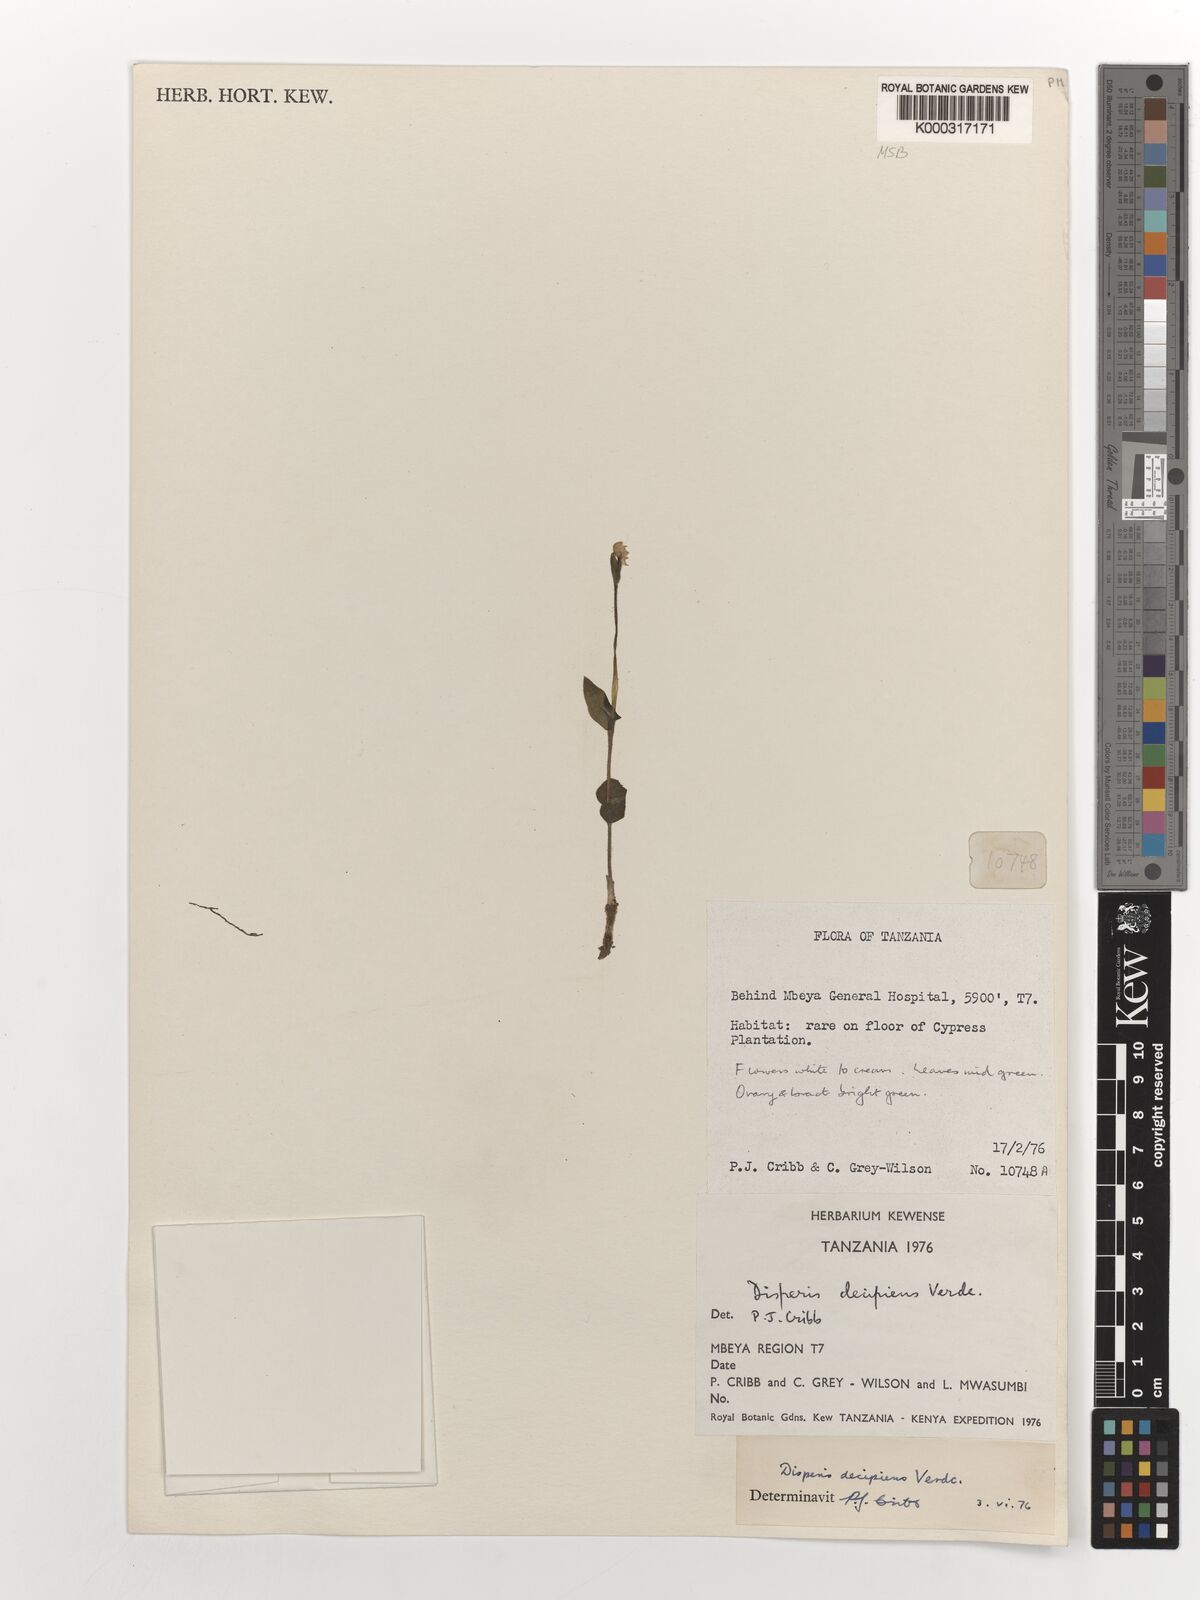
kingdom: Plantae
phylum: Tracheophyta
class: Liliopsida
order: Asparagales
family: Orchidaceae
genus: Disperis
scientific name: Disperis decipiens
